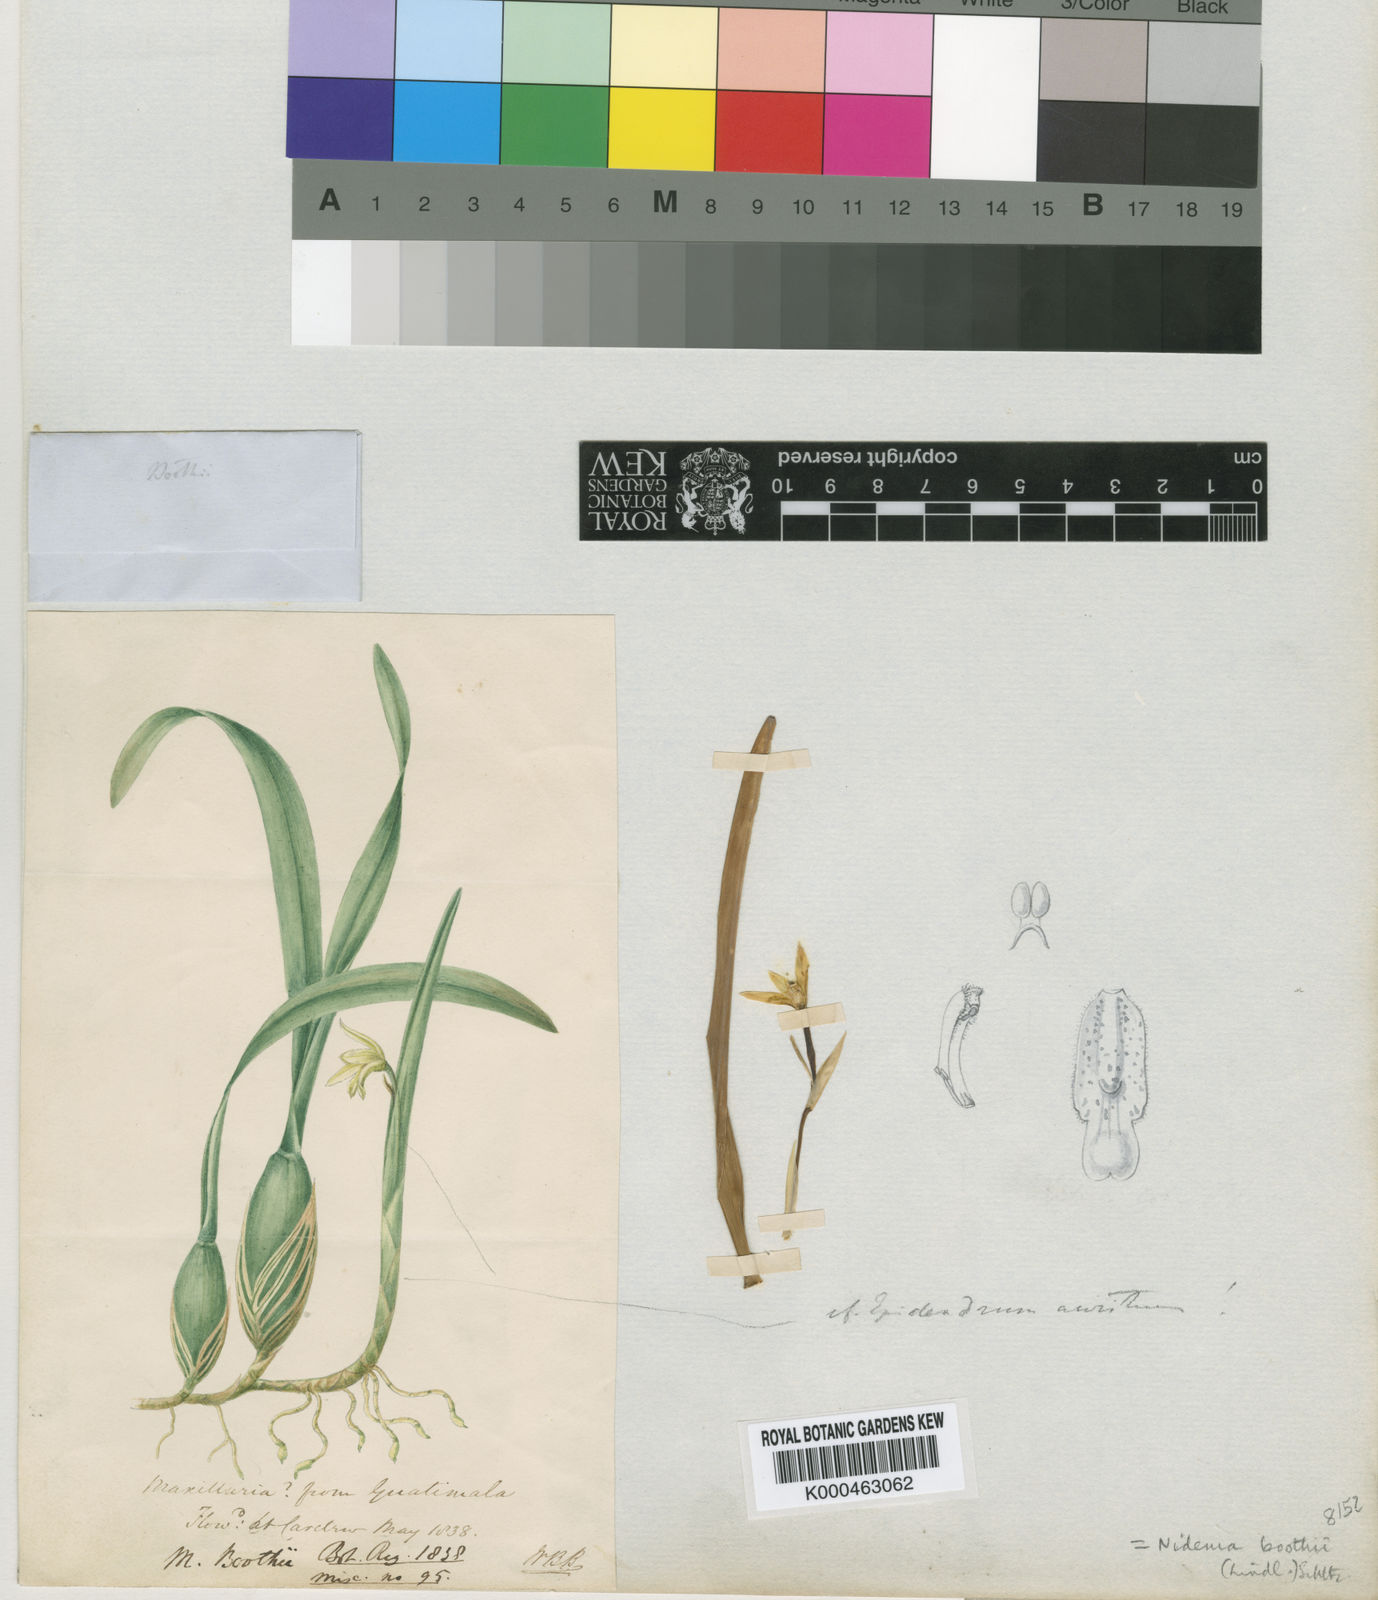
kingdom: Plantae
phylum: Tracheophyta
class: Liliopsida
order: Asparagales
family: Orchidaceae
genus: Nidema
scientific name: Nidema boothii
